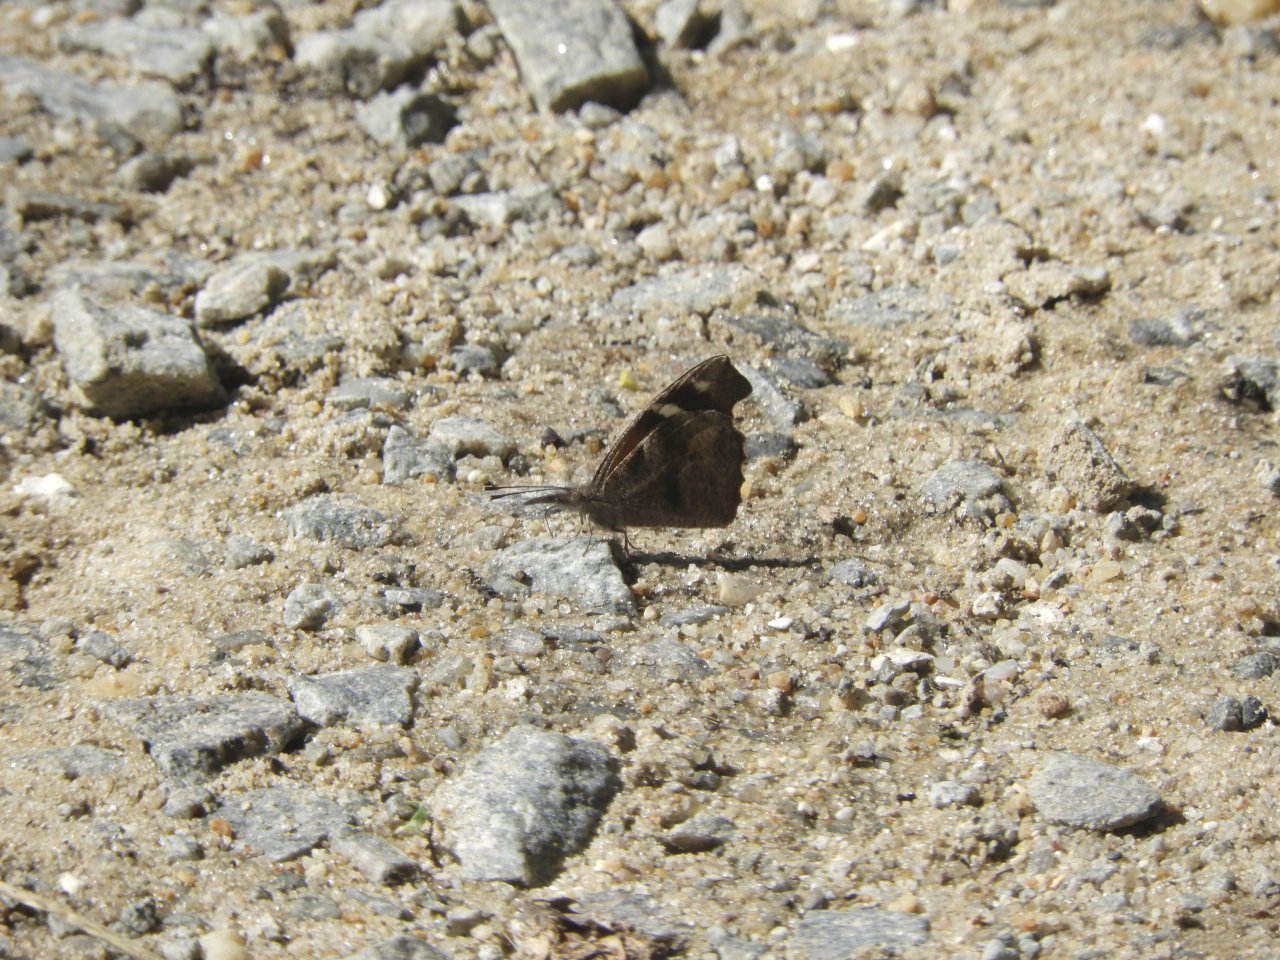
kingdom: Animalia
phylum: Arthropoda
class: Insecta
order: Lepidoptera
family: Nymphalidae
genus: Libytheana
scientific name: Libytheana carinenta
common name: American Snout
